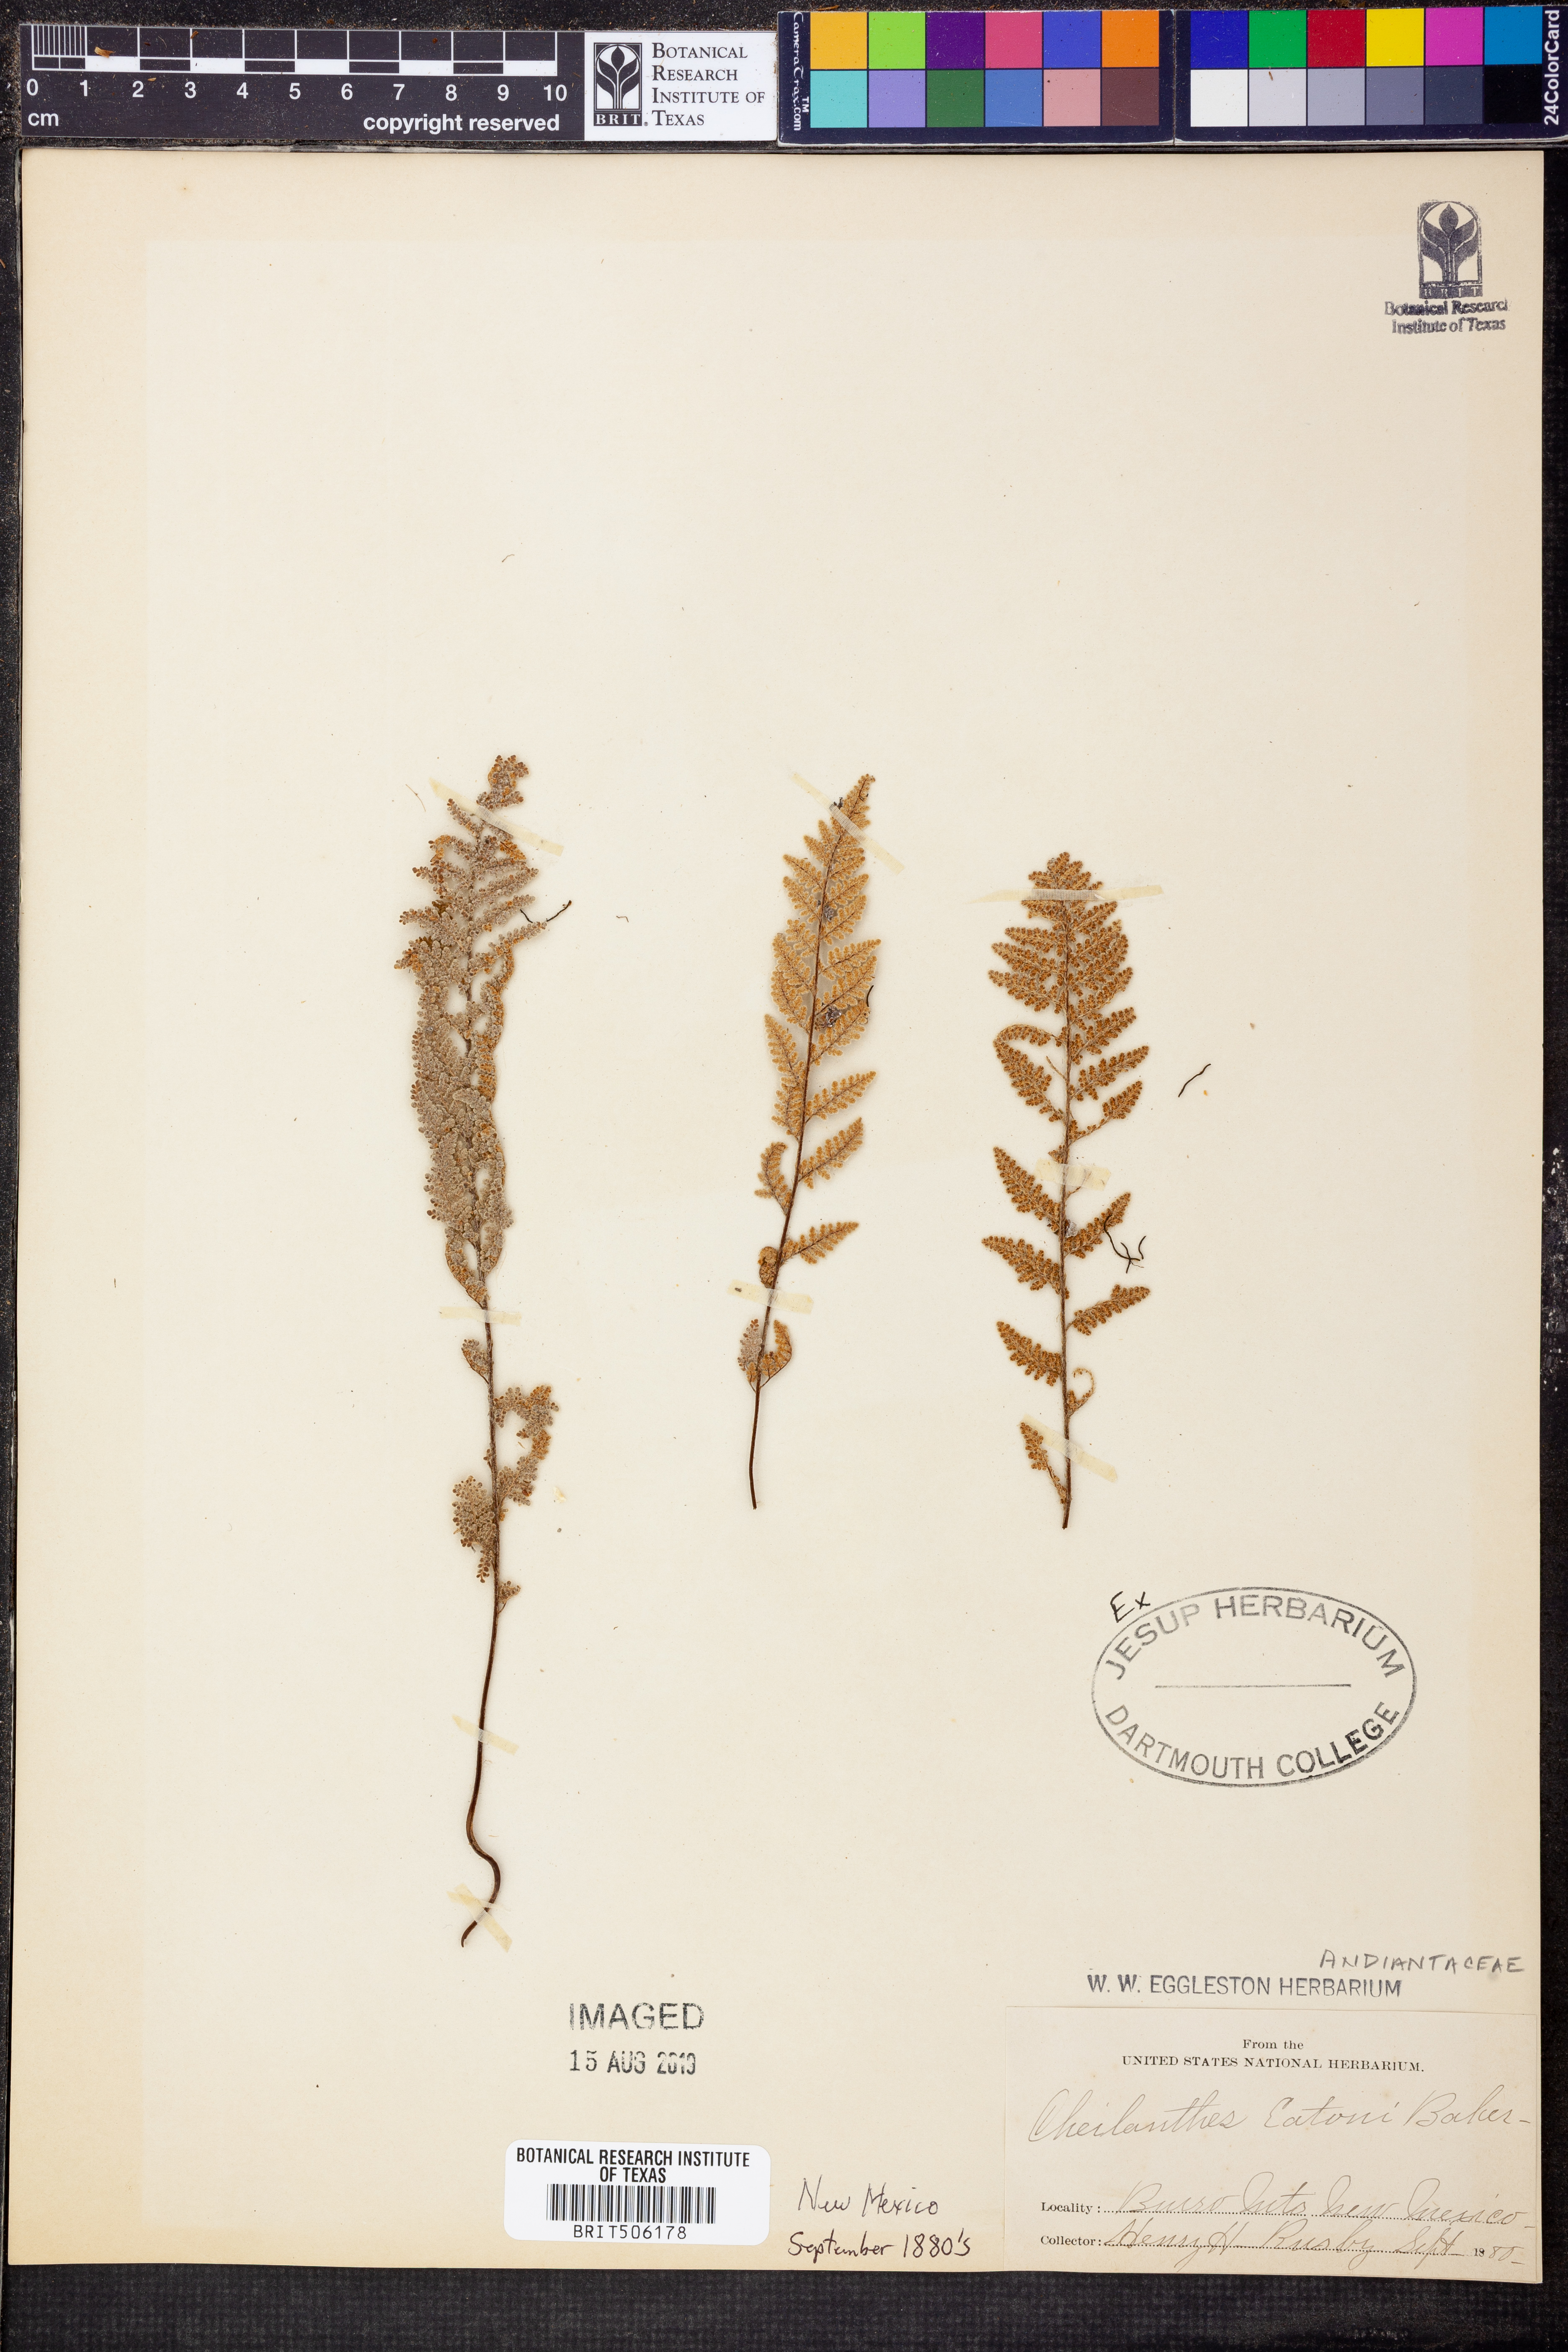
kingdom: Plantae
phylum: Tracheophyta
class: Polypodiopsida
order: Polypodiales
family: Pteridaceae
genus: Myriopteris
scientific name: Myriopteris rufa
